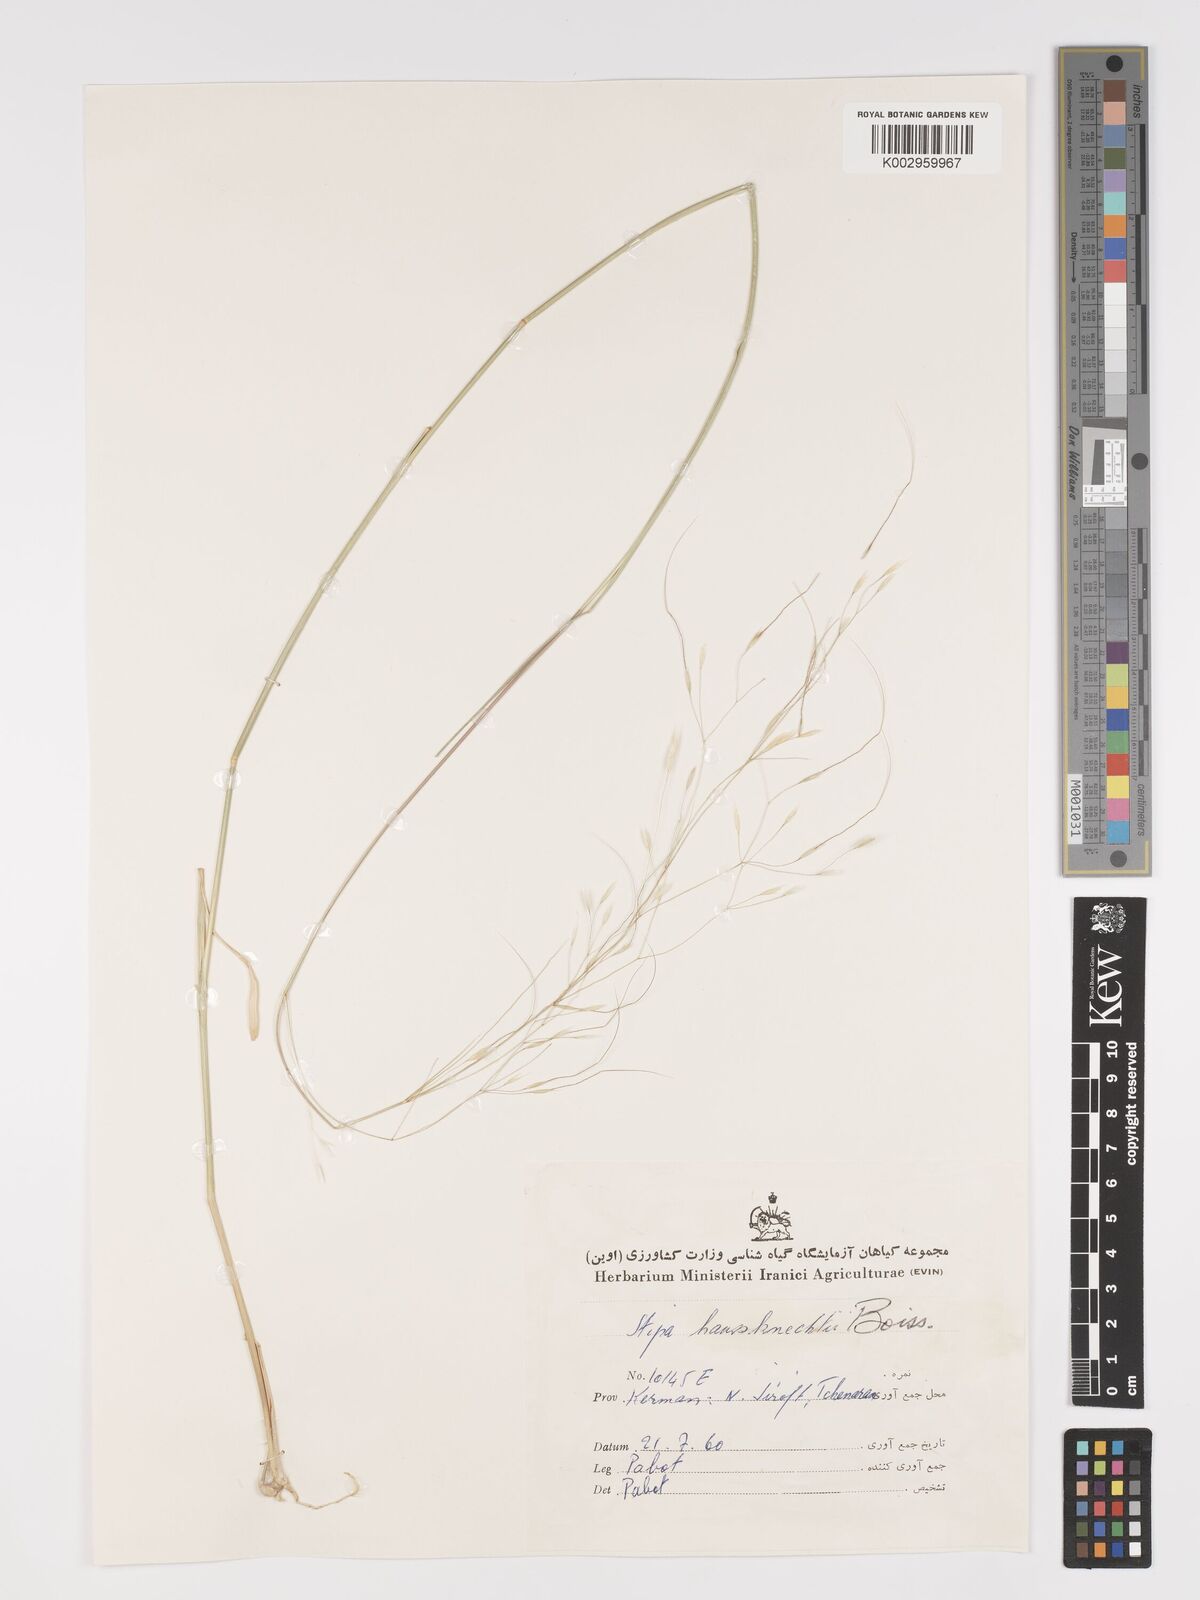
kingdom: Plantae
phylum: Tracheophyta
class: Liliopsida
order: Poales
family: Poaceae
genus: Achnatherum
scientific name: Achnatherum haussknechtii
